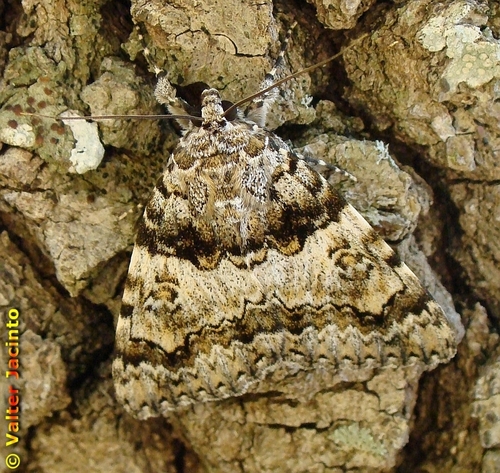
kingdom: Animalia
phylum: Arthropoda
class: Insecta
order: Lepidoptera
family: Erebidae
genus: Catocala
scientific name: Catocala coniuncta
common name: Minsmere crimson underwing
